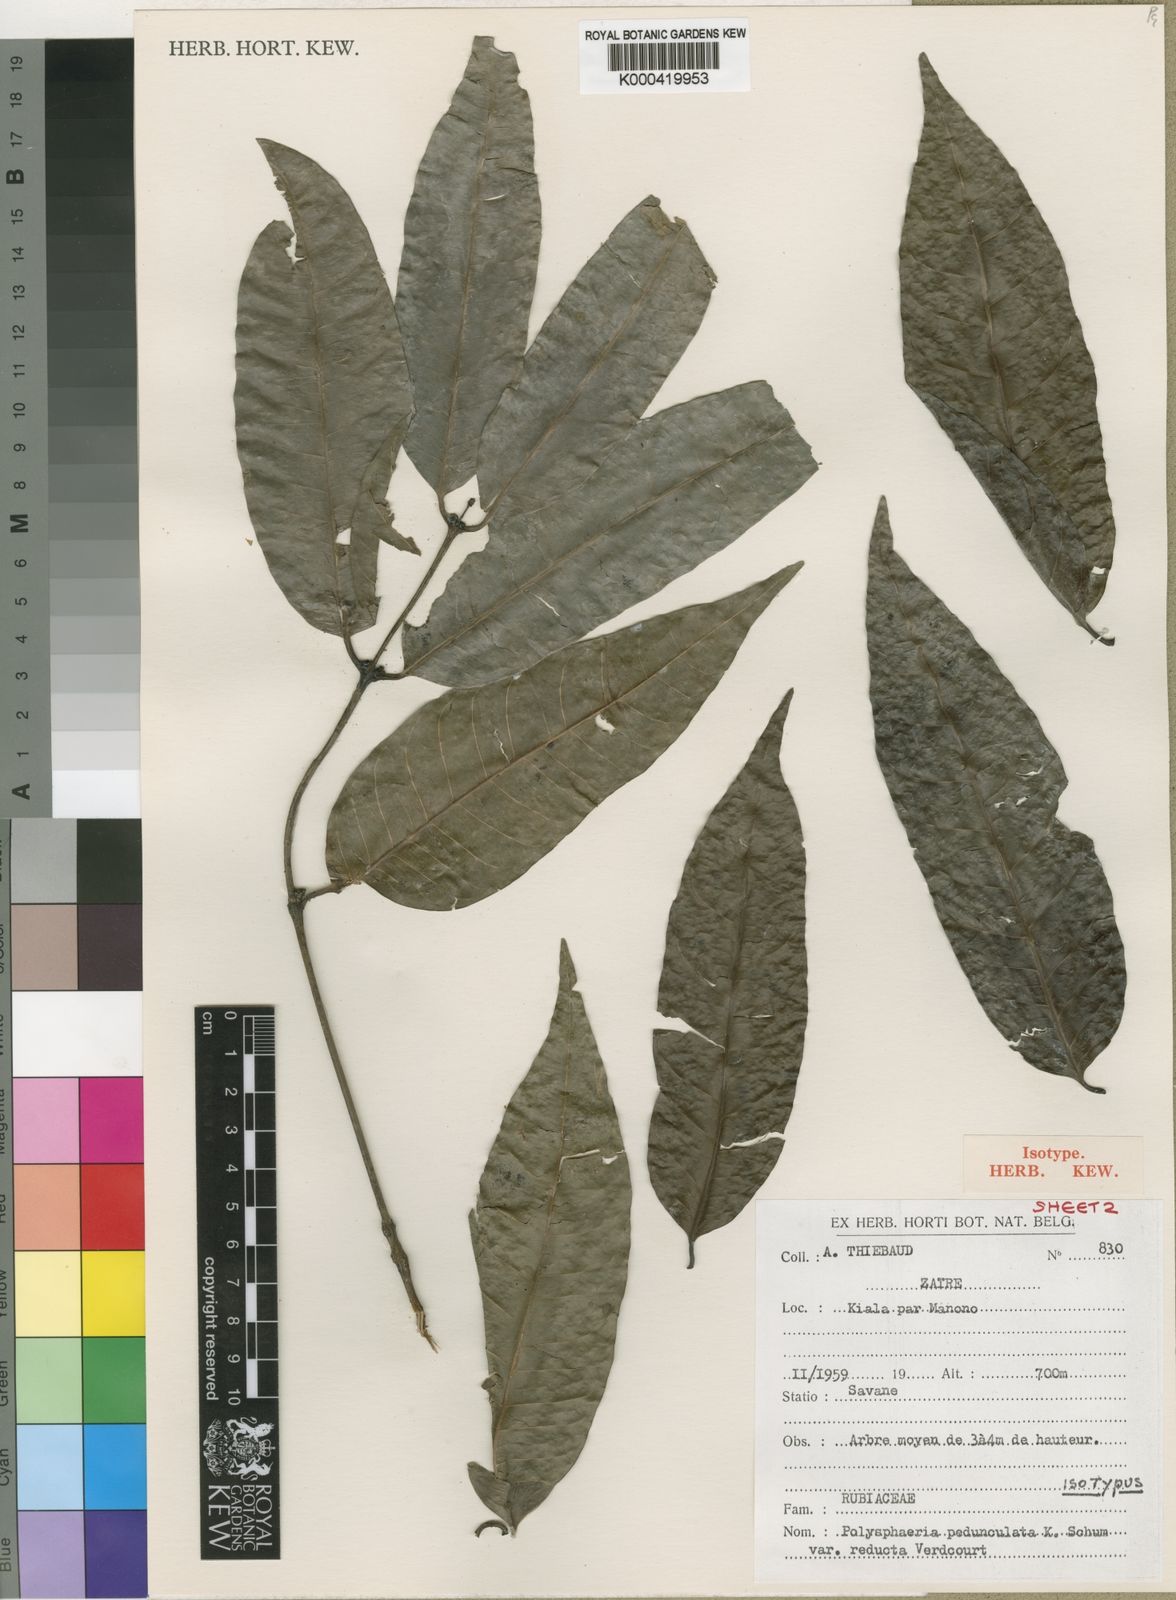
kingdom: Plantae
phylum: Tracheophyta
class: Magnoliopsida
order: Gentianales
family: Rubiaceae
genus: Polysphaeria
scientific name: Polysphaeria pedunculata
